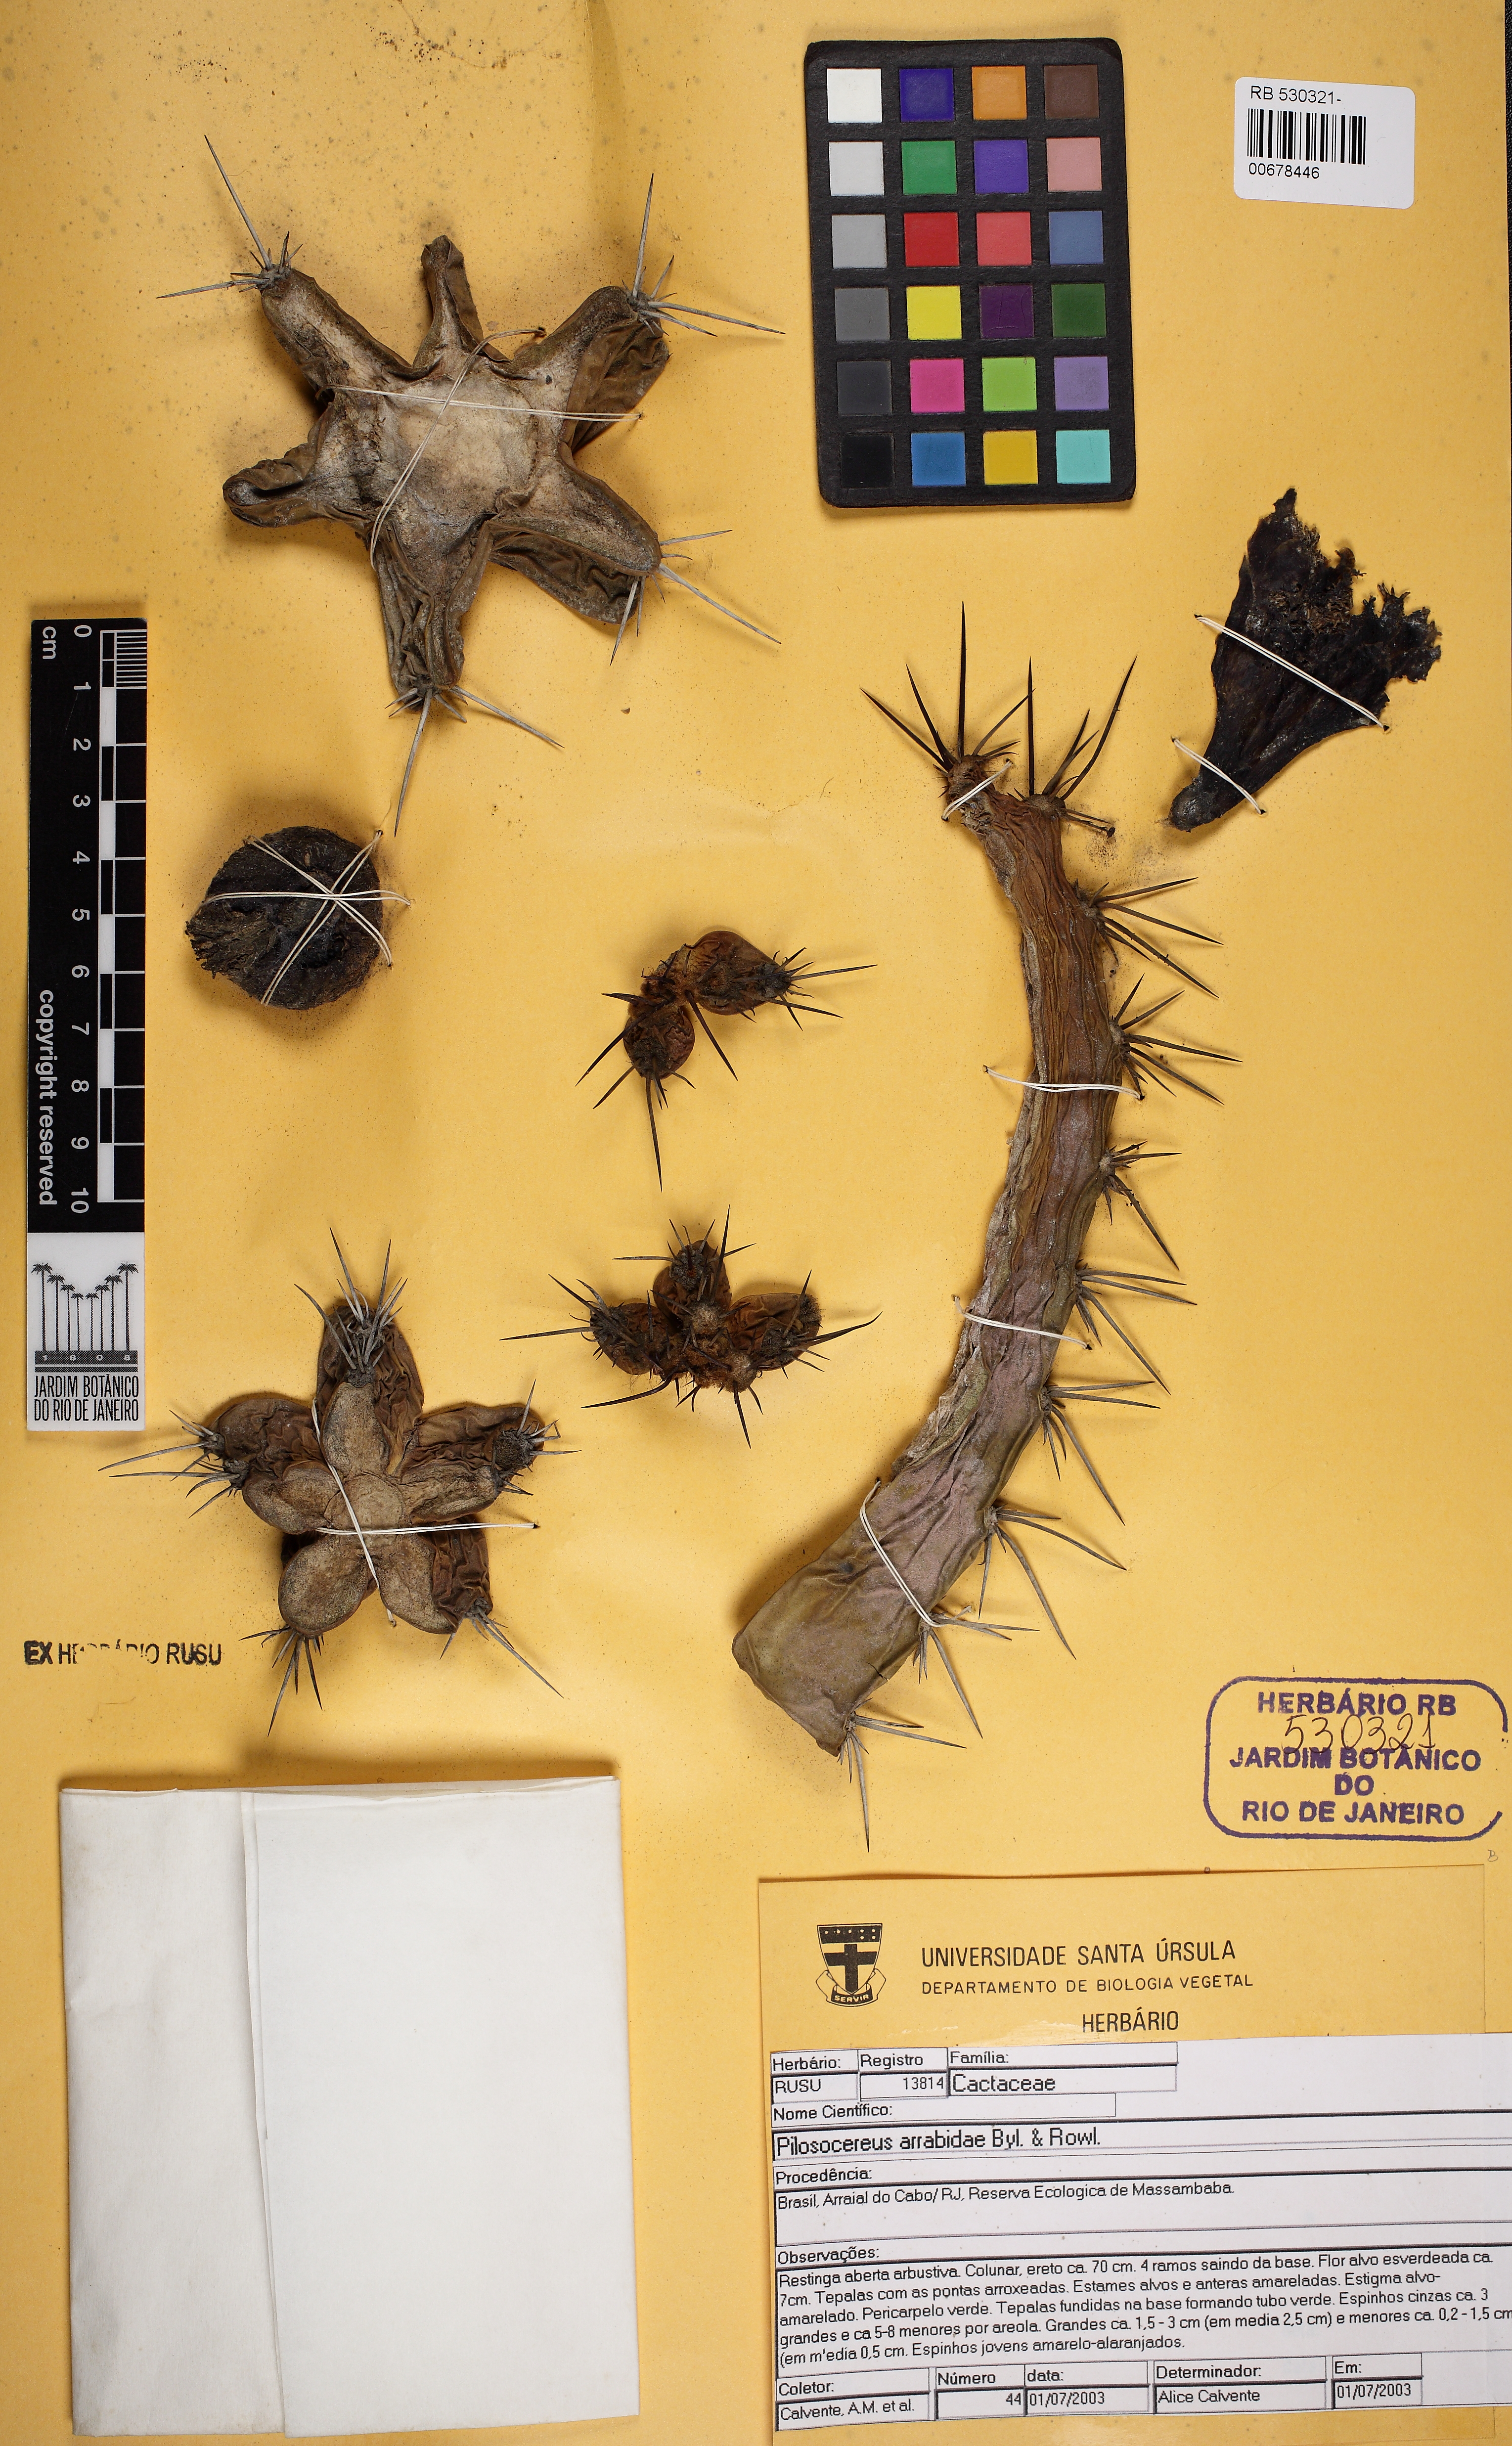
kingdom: Plantae
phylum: Tracheophyta
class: Magnoliopsida
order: Caryophyllales
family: Cactaceae
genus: Pilosocereus
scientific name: Pilosocereus arrabidae
